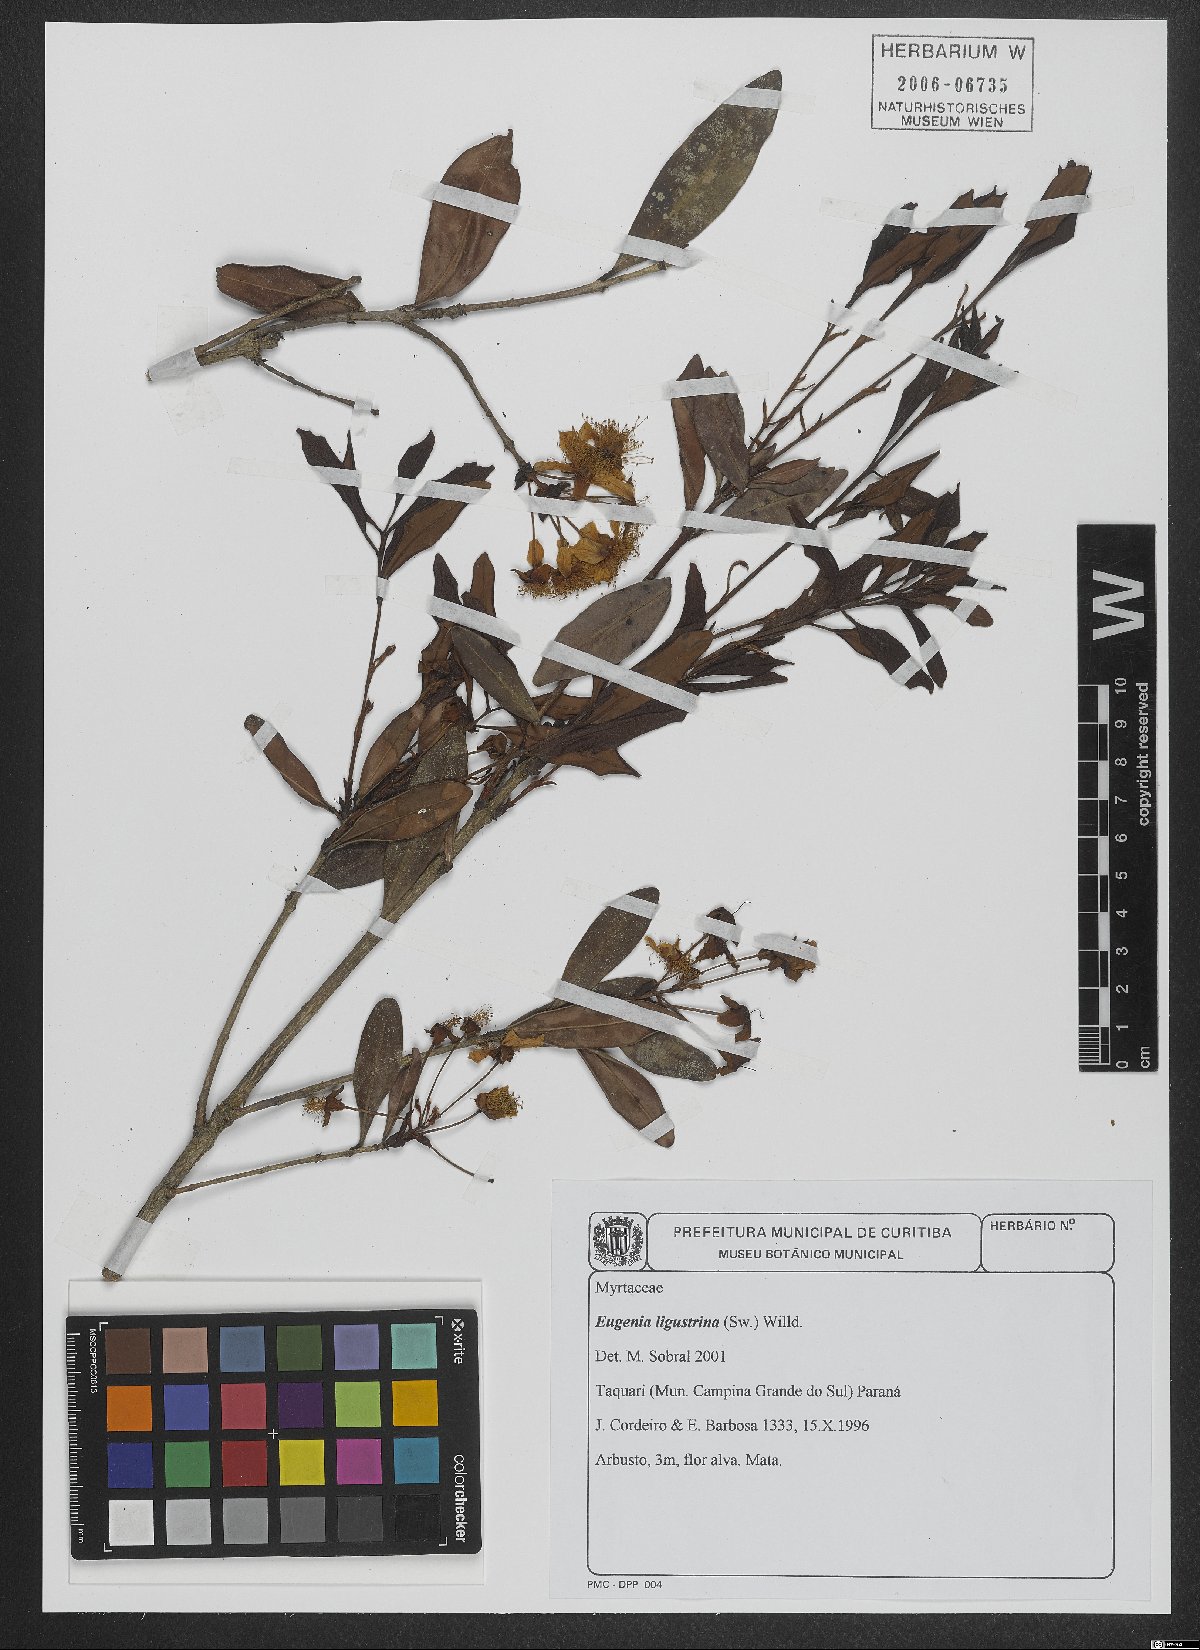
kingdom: Plantae
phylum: Tracheophyta
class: Magnoliopsida
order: Myrtales
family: Myrtaceae
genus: Eugenia
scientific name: Eugenia ligustrina
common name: Privet stopper
